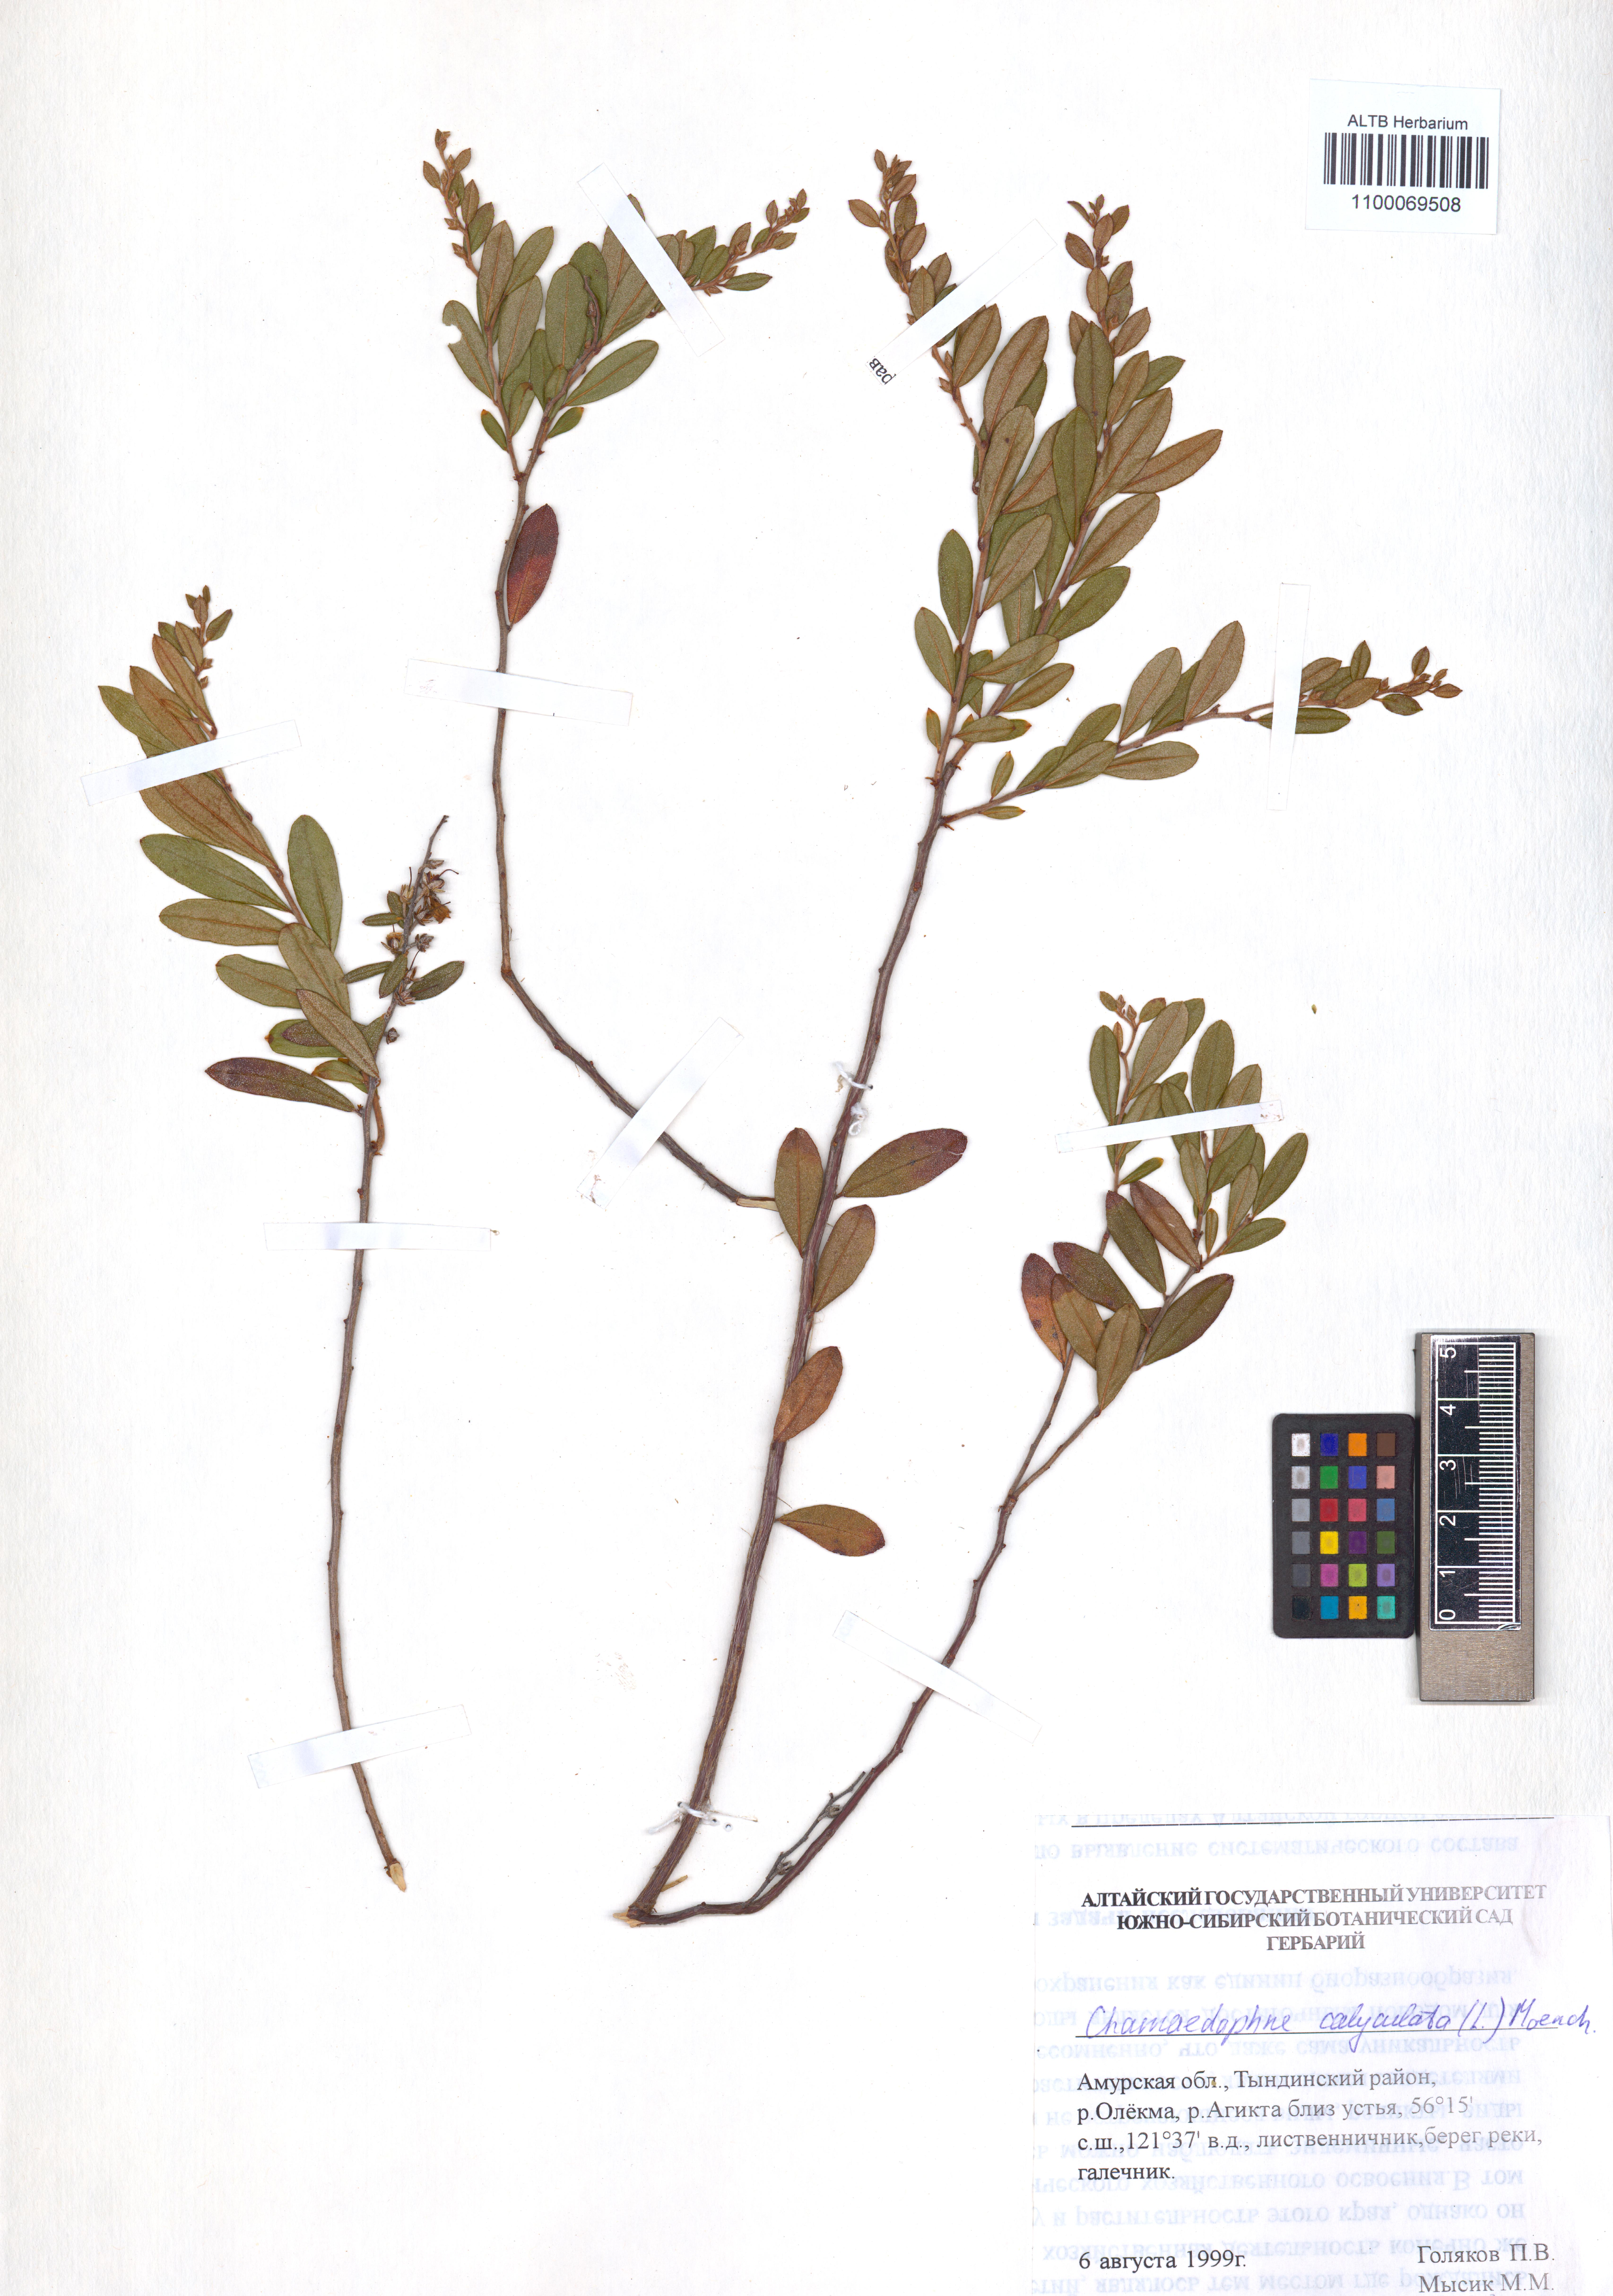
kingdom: Plantae
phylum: Tracheophyta
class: Magnoliopsida
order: Ericales
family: Ericaceae
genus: Chamaedaphne
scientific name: Chamaedaphne calyculata
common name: Leatherleaf
